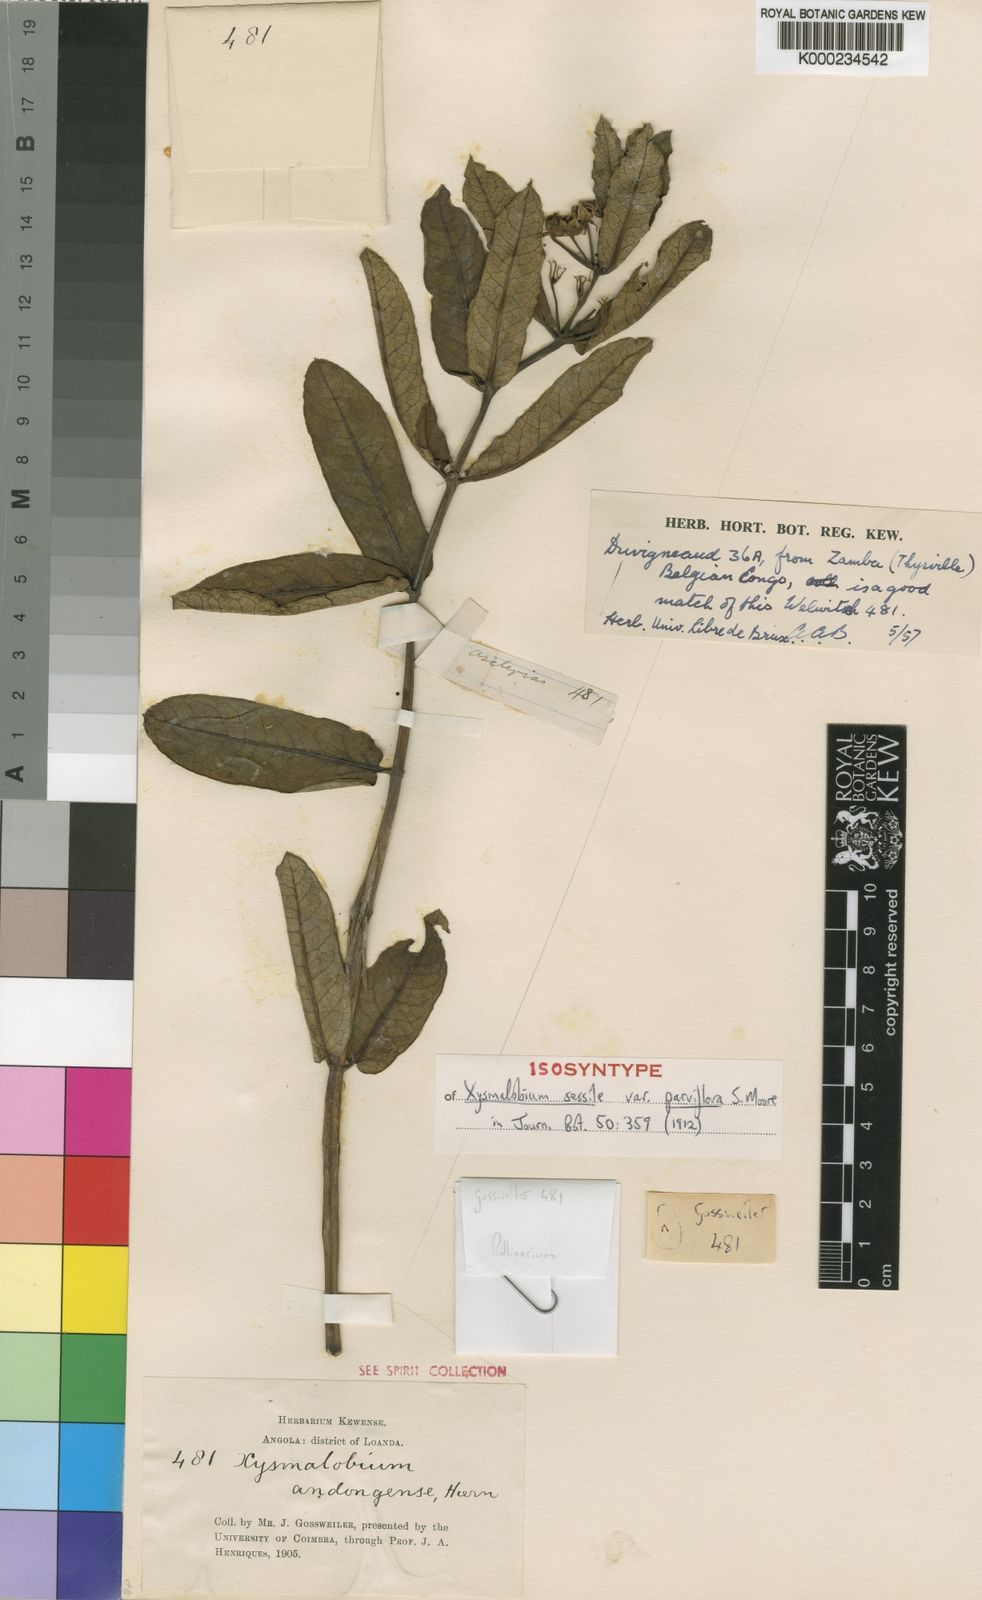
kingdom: Plantae
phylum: Tracheophyta
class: Magnoliopsida
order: Gentianales
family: Apocynaceae
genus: Xysmalobium
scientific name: Xysmalobium andongense
